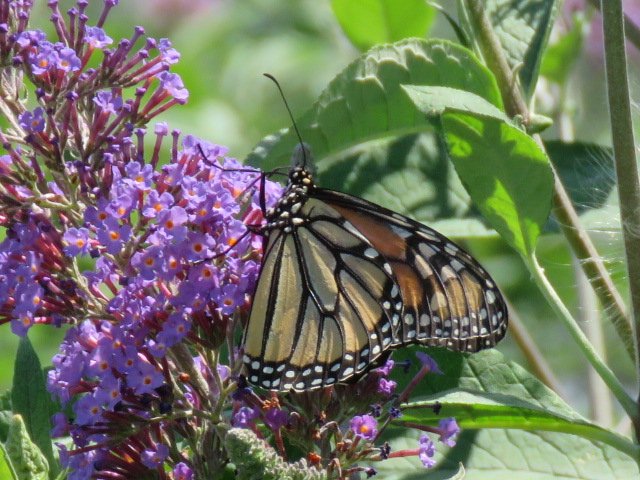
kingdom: Animalia
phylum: Arthropoda
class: Insecta
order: Lepidoptera
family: Nymphalidae
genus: Danaus
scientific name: Danaus plexippus
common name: Monarch
